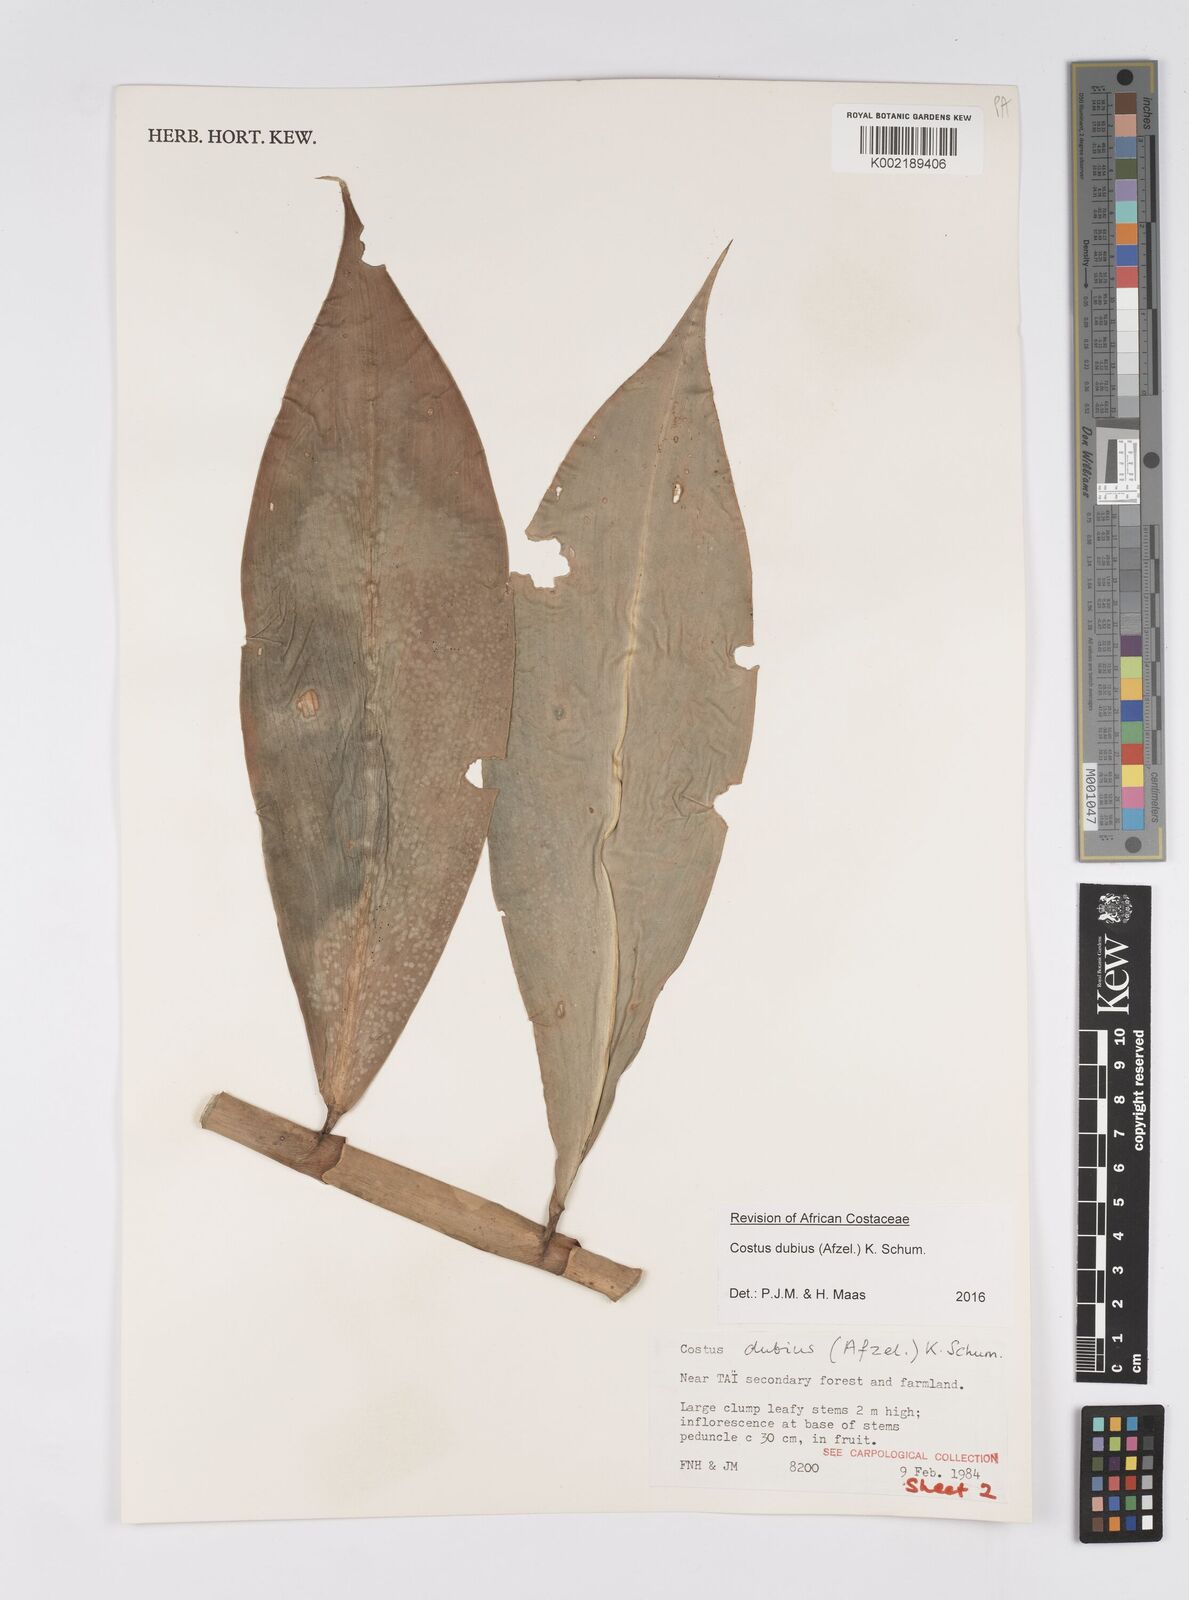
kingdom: Plantae
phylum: Tracheophyta
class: Liliopsida
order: Zingiberales
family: Costaceae
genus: Costus
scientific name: Costus dubius
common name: Costus
